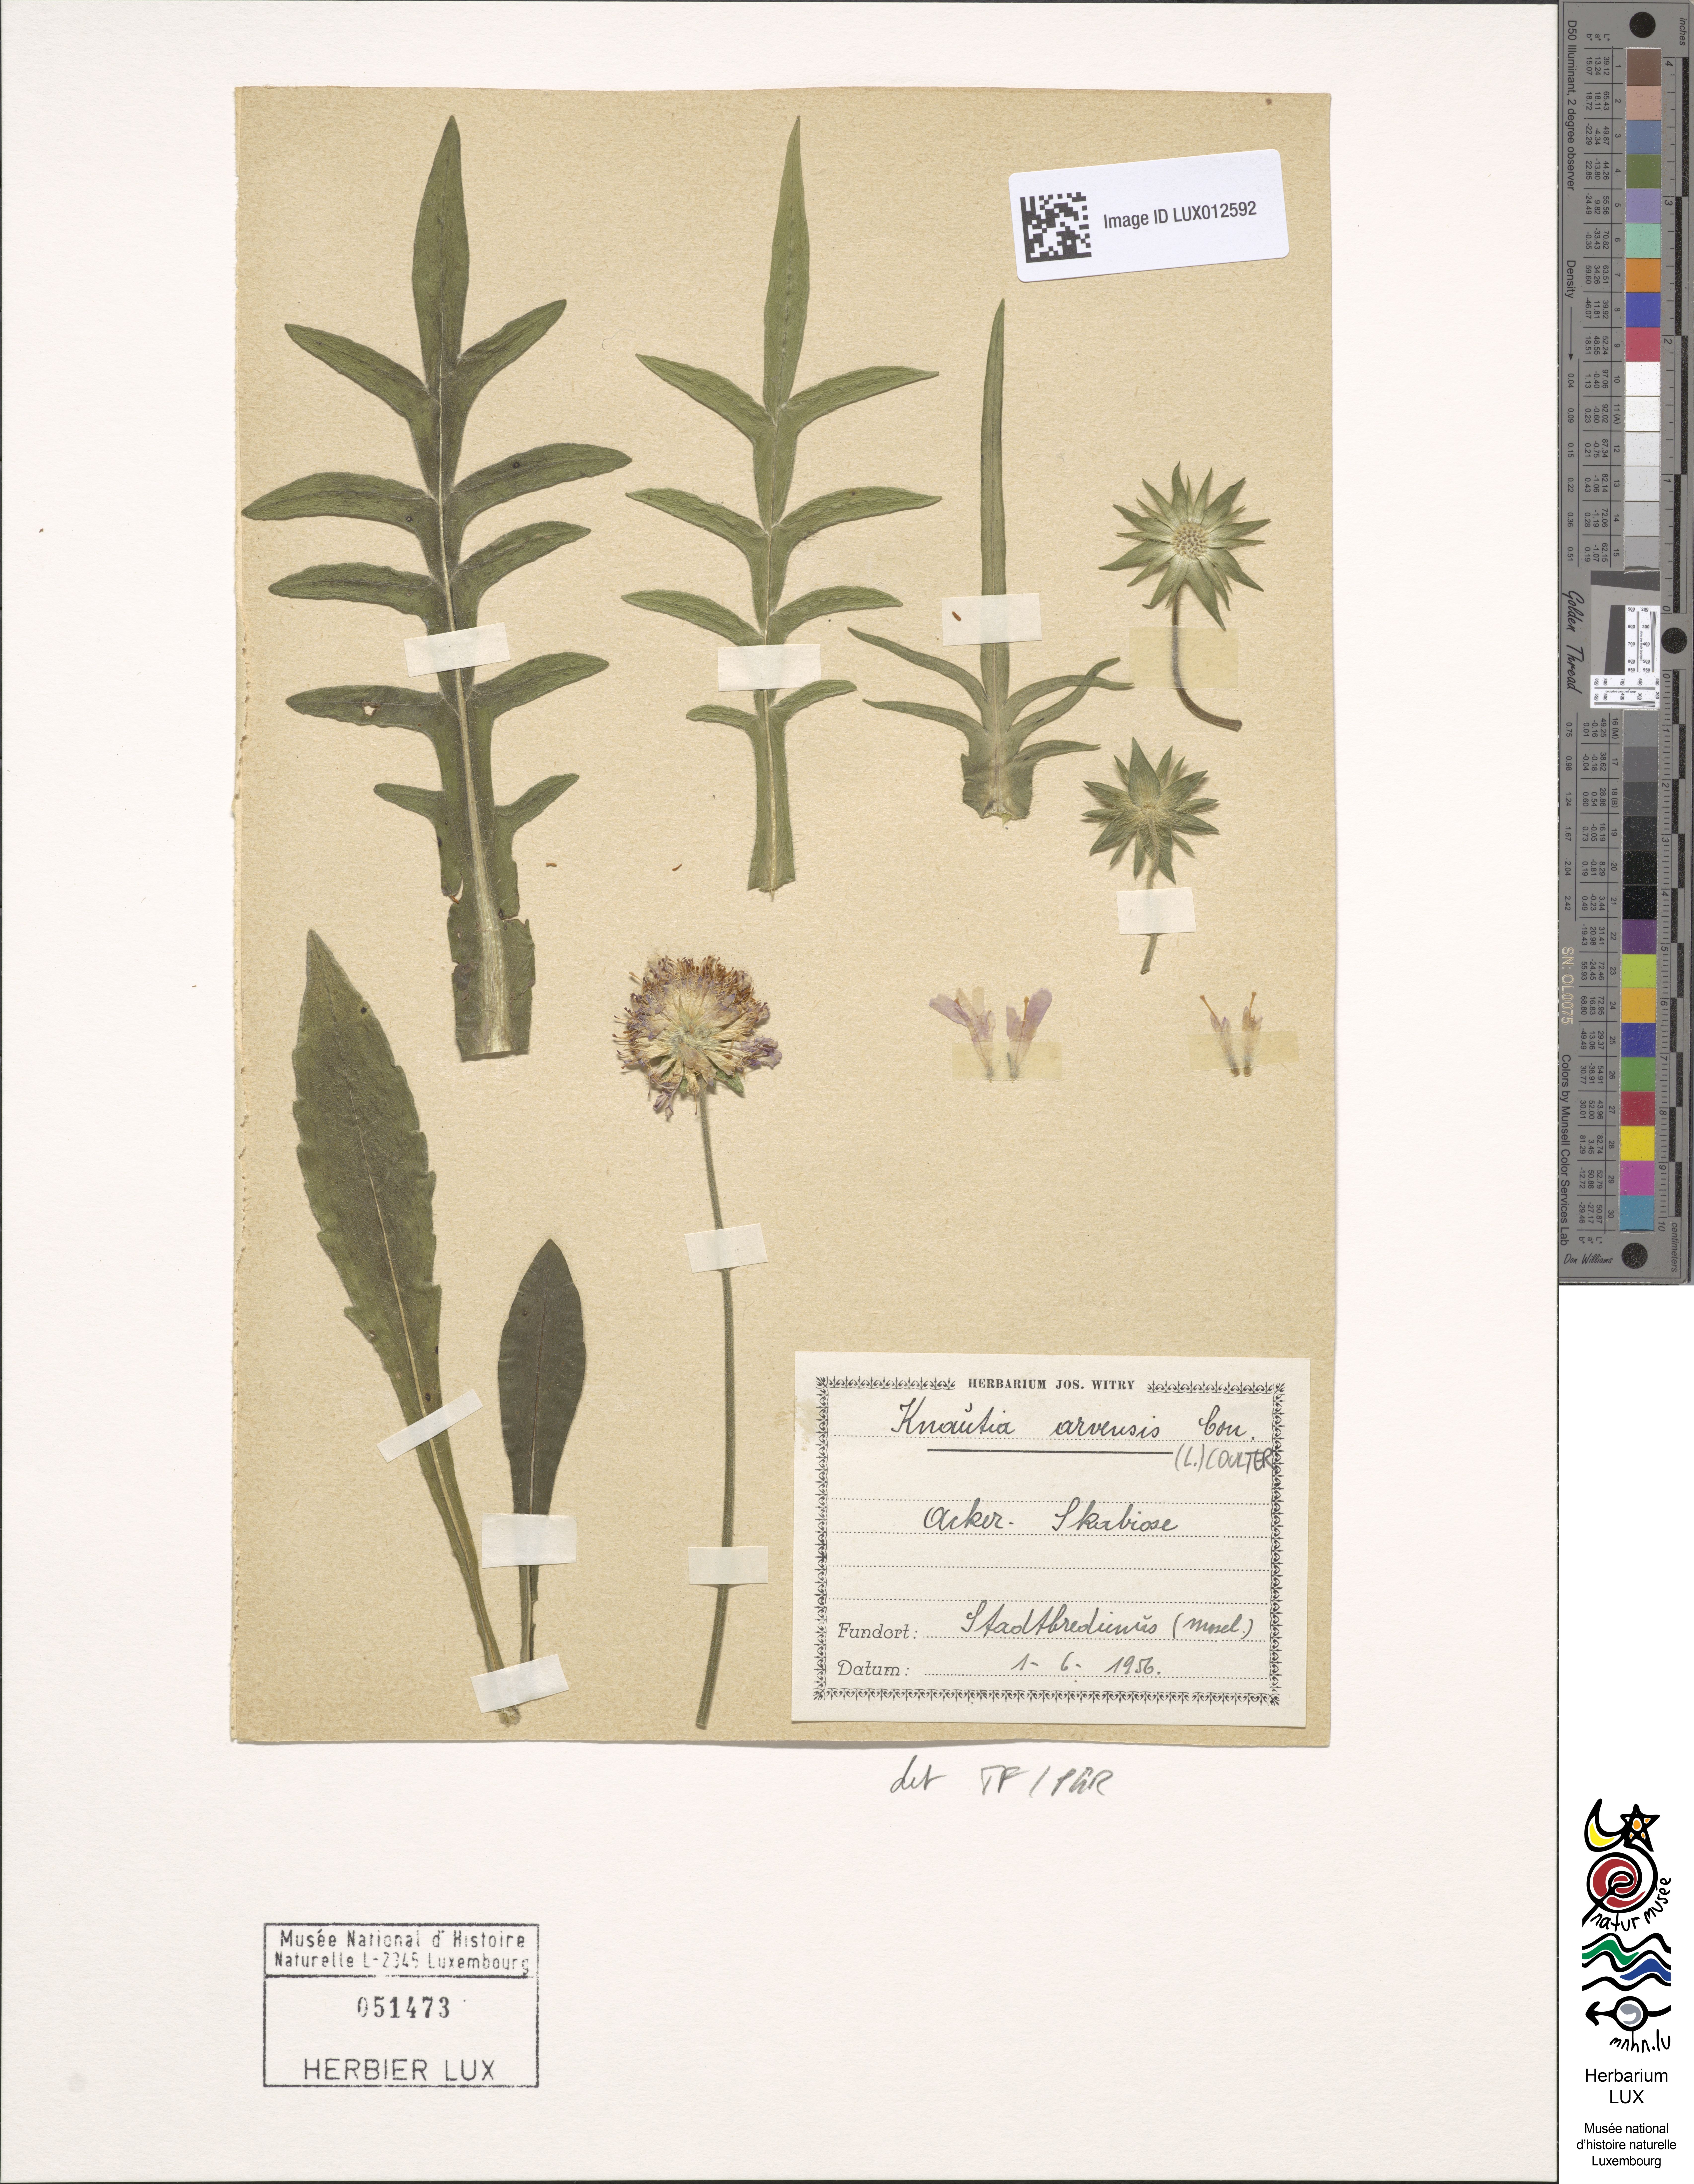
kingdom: Plantae
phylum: Tracheophyta
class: Magnoliopsida
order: Dipsacales
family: Caprifoliaceae
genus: Knautia
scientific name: Knautia arvensis
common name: Field scabiosa
